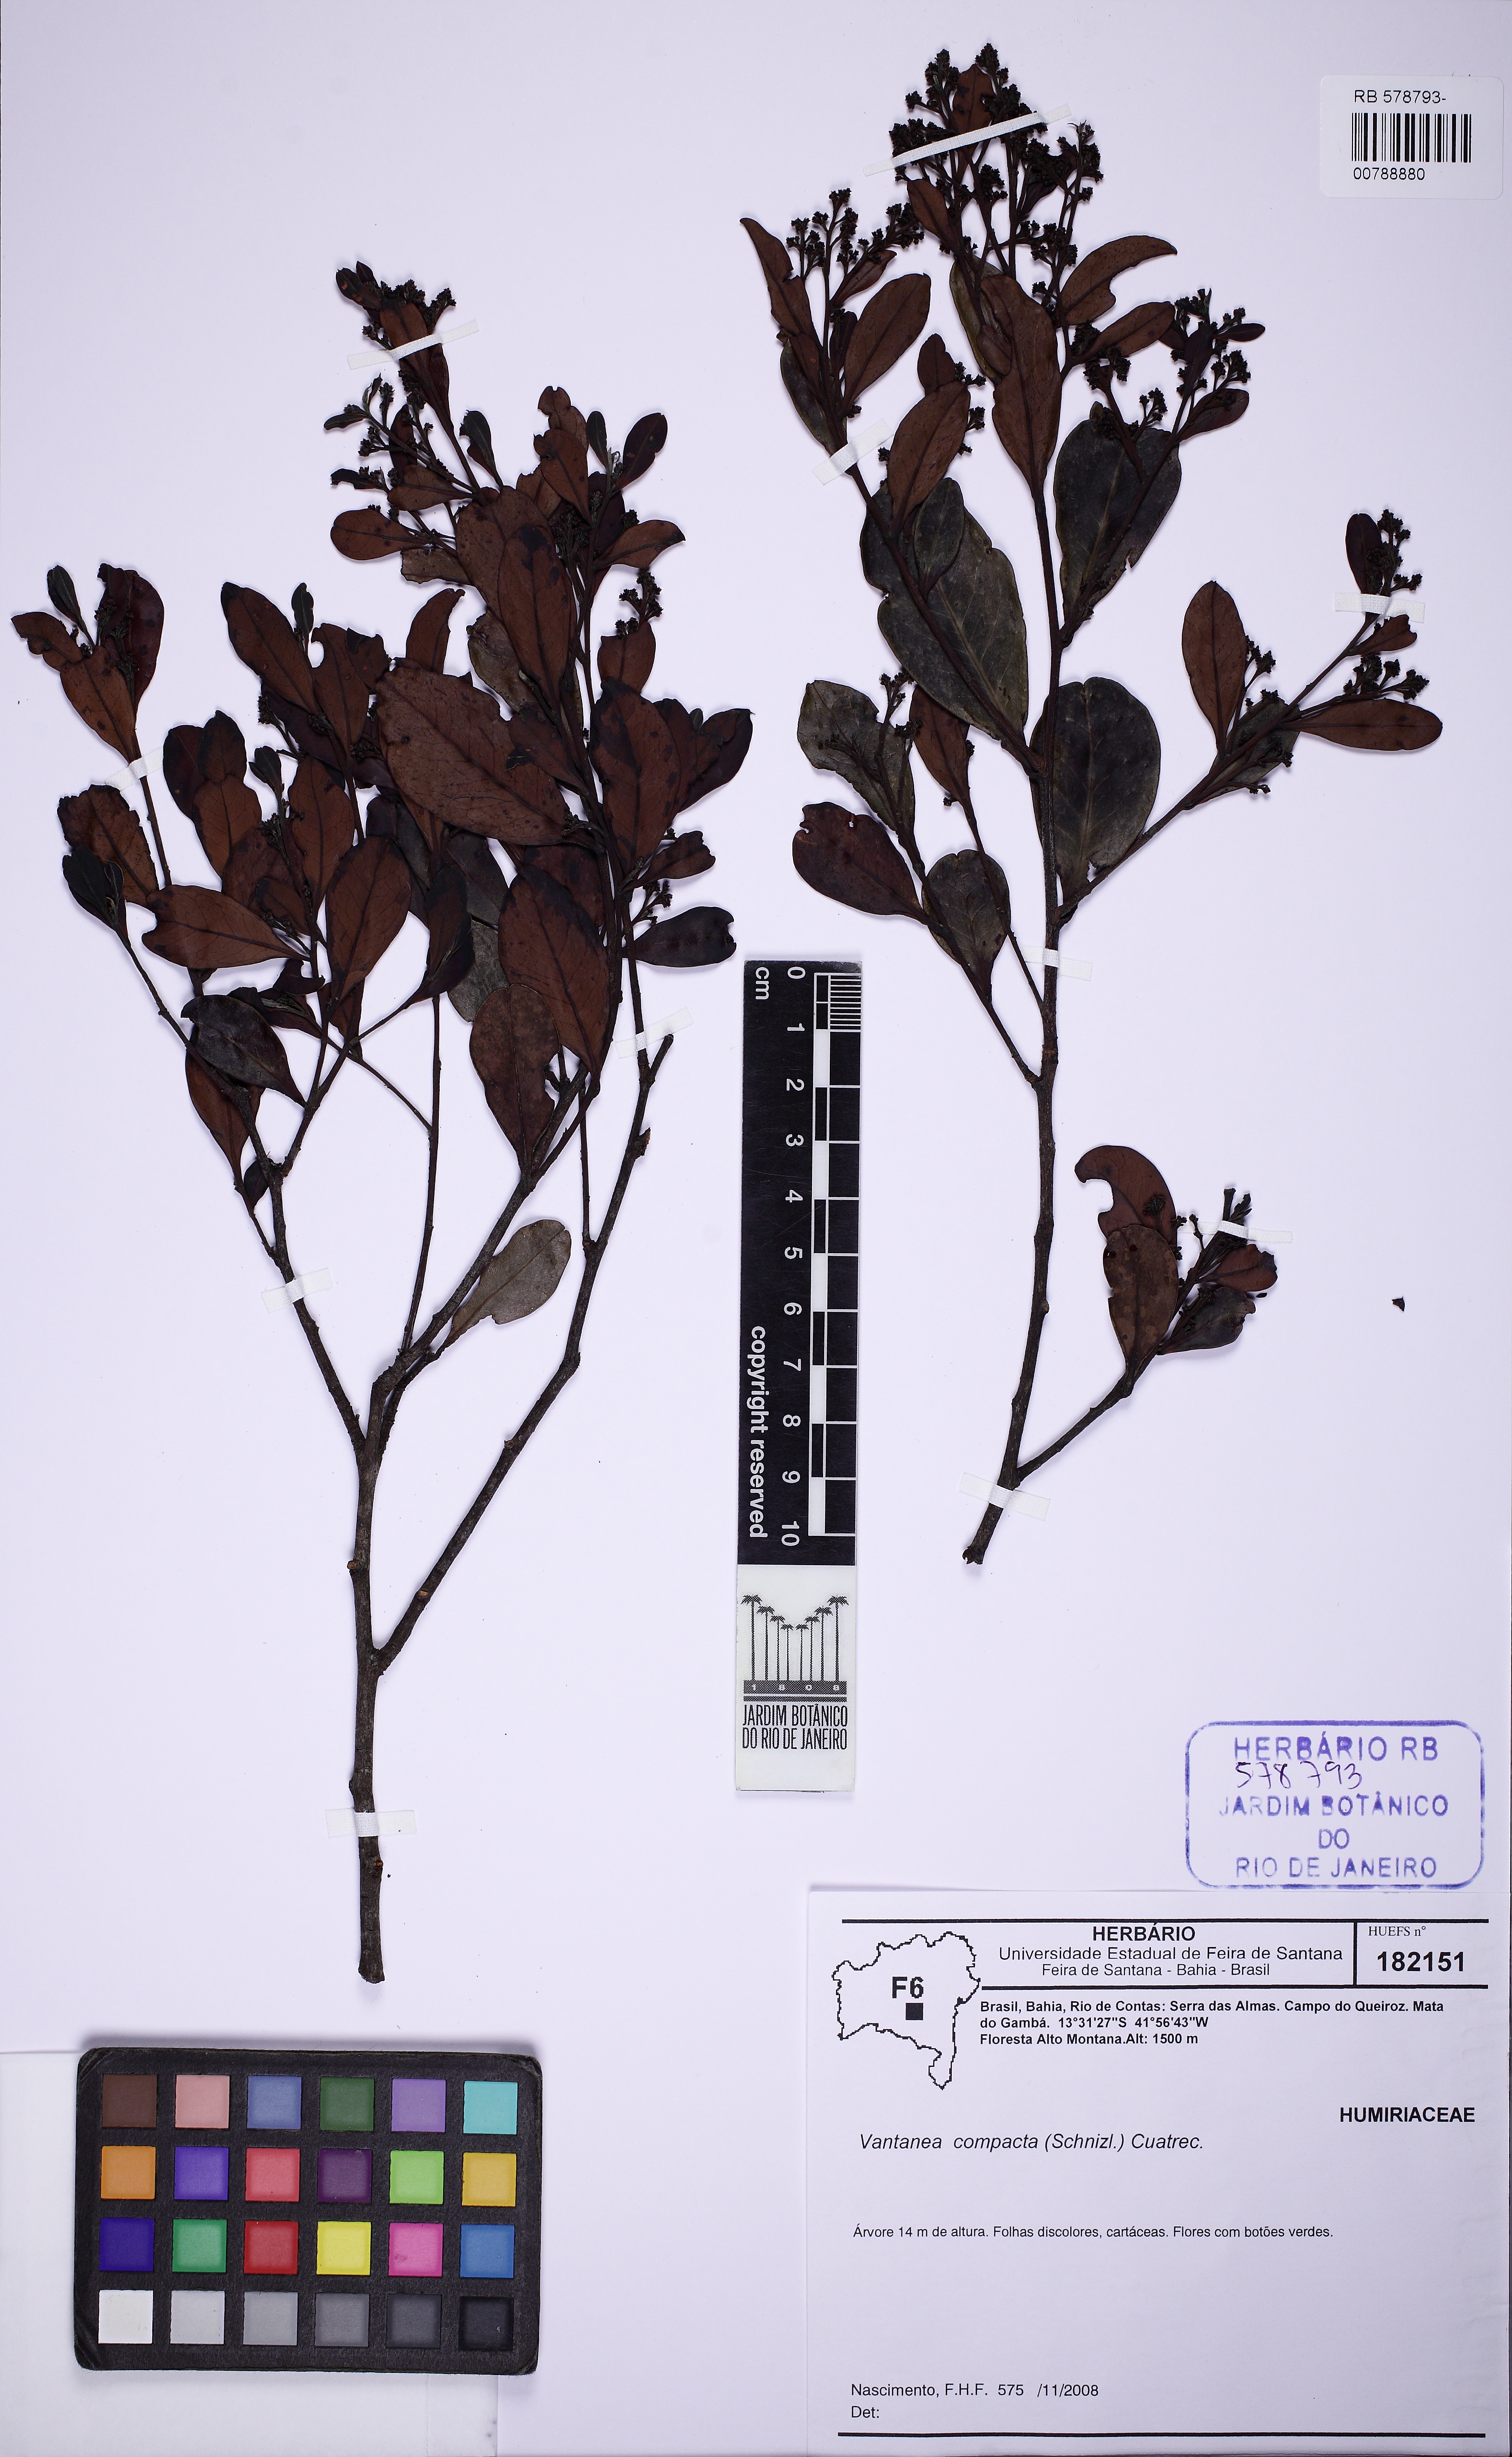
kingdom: Plantae
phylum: Tracheophyta
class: Magnoliopsida
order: Malpighiales
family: Humiriaceae
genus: Vantanea
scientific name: Vantanea compacta
